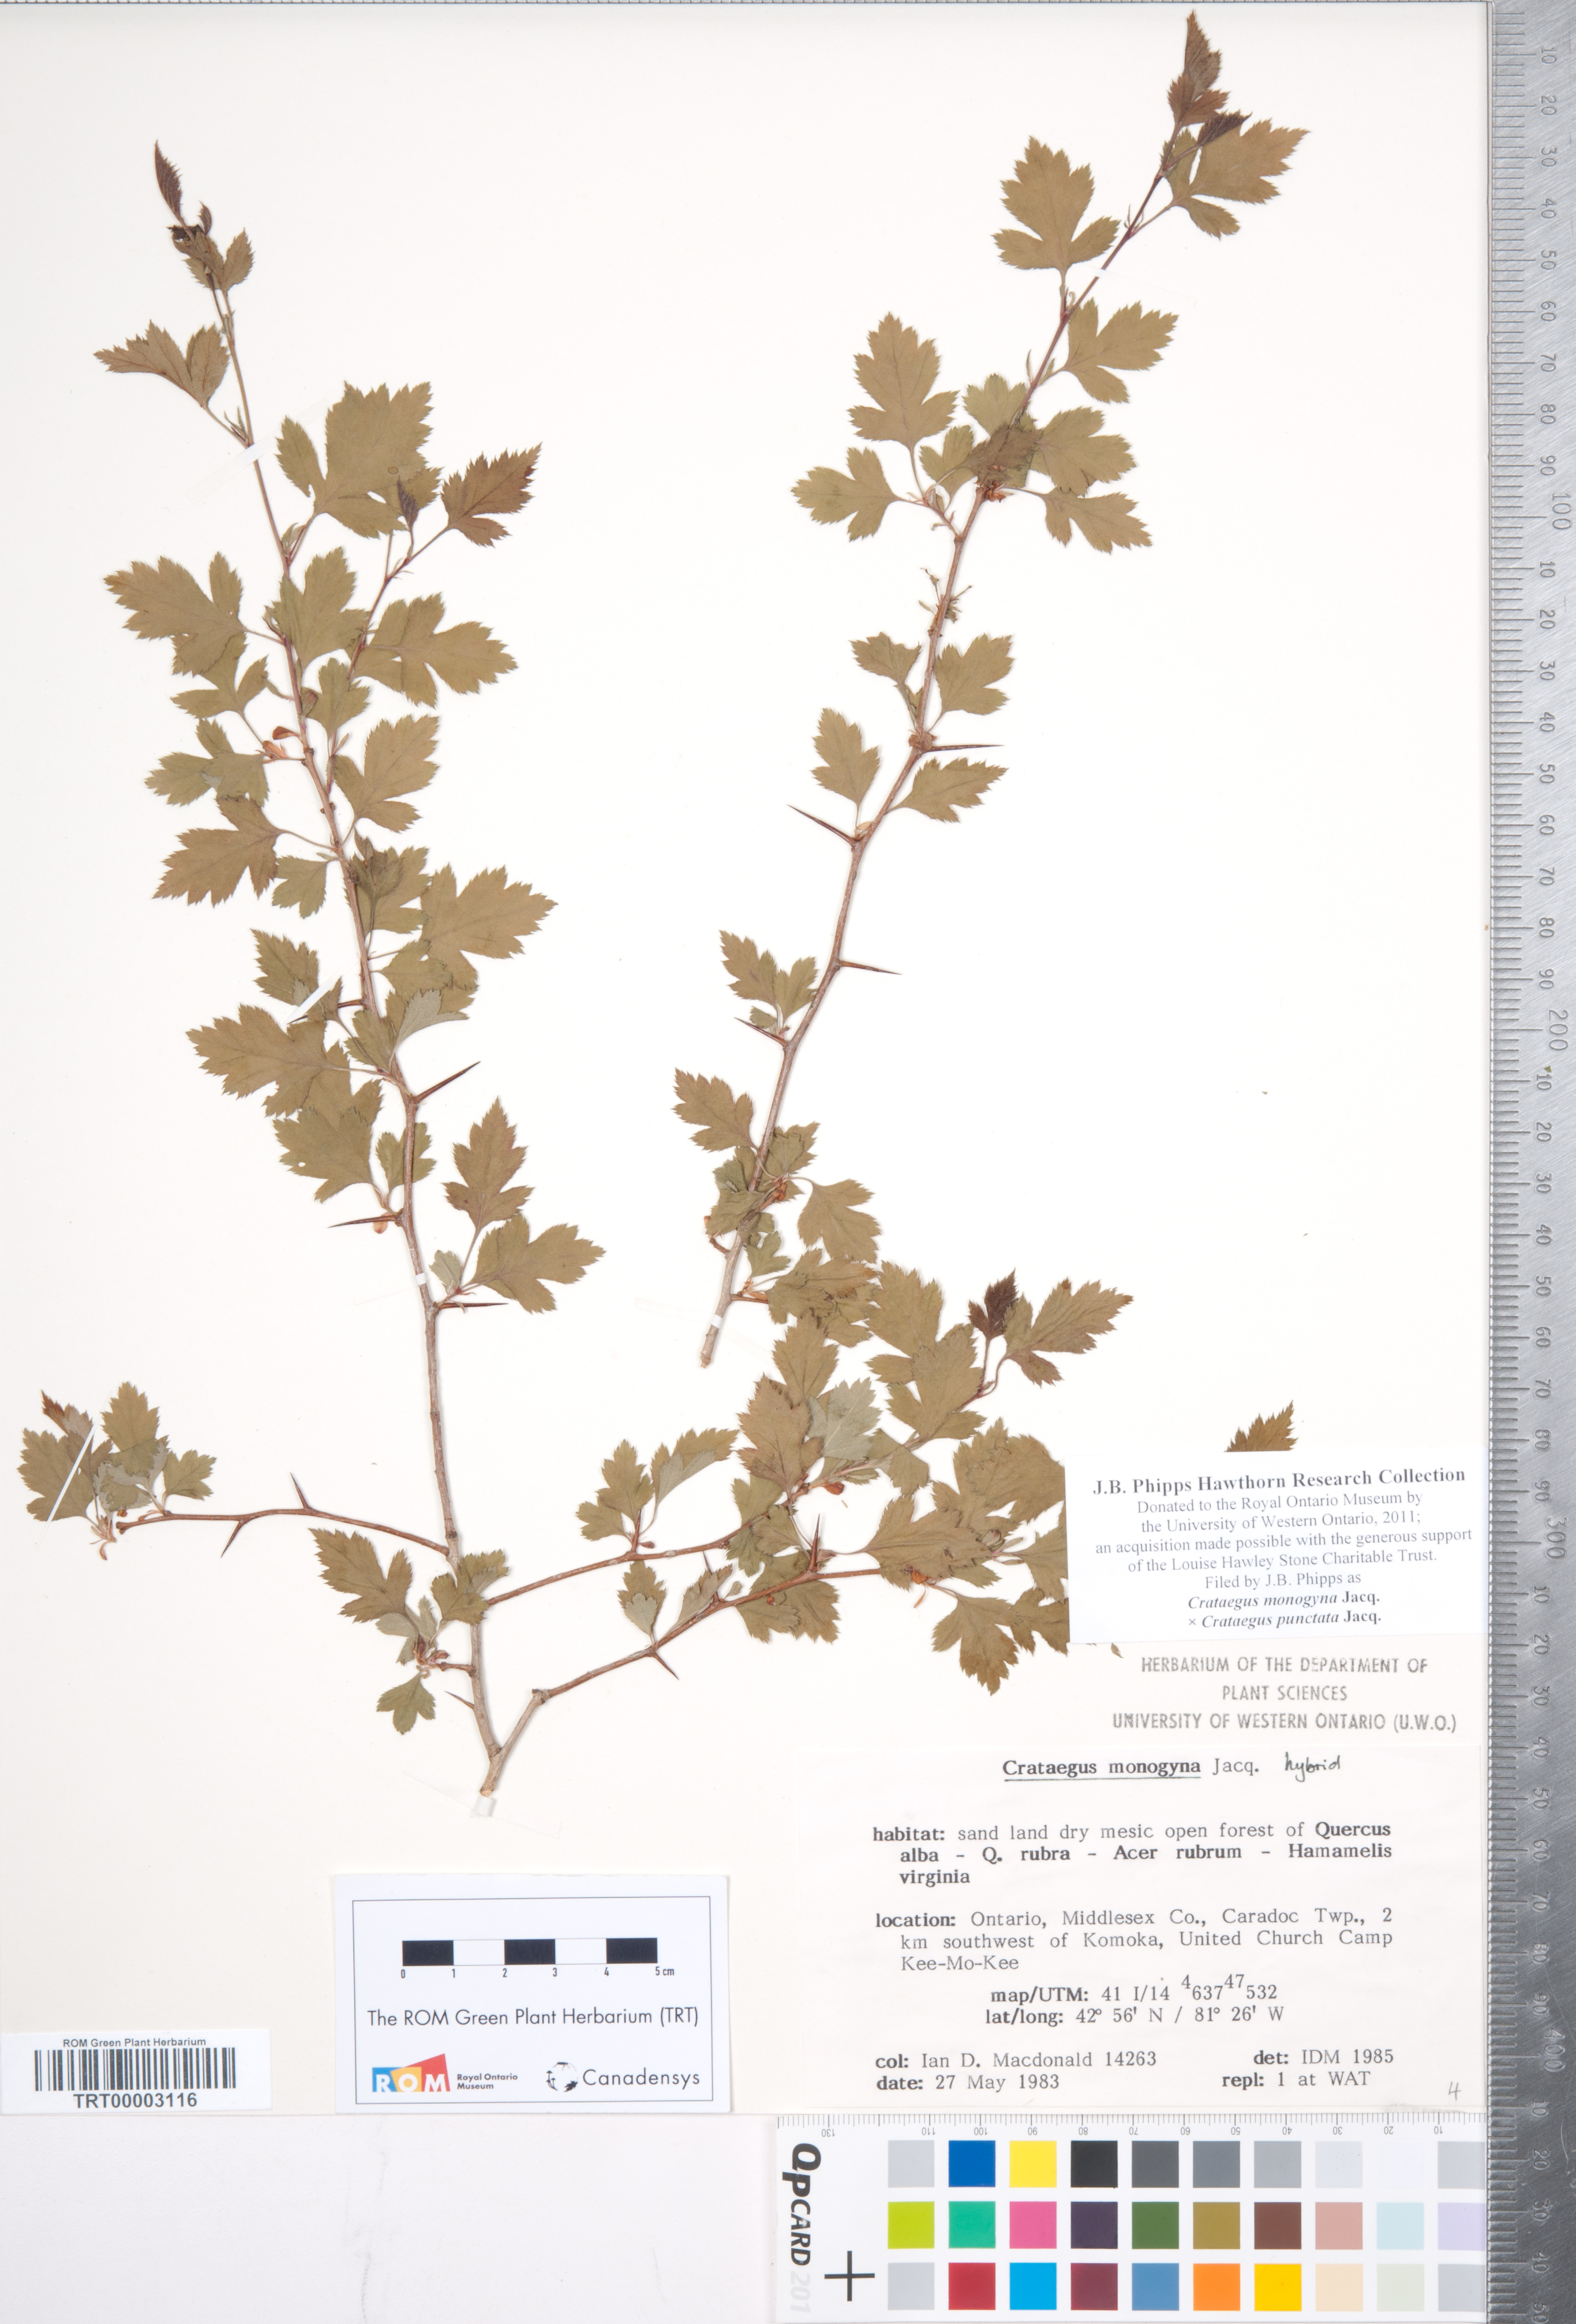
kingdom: Plantae
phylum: Tracheophyta
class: Magnoliopsida
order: Rosales
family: Rosaceae
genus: Crataegus
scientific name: Crataegus monogyna
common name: Hawthorn
